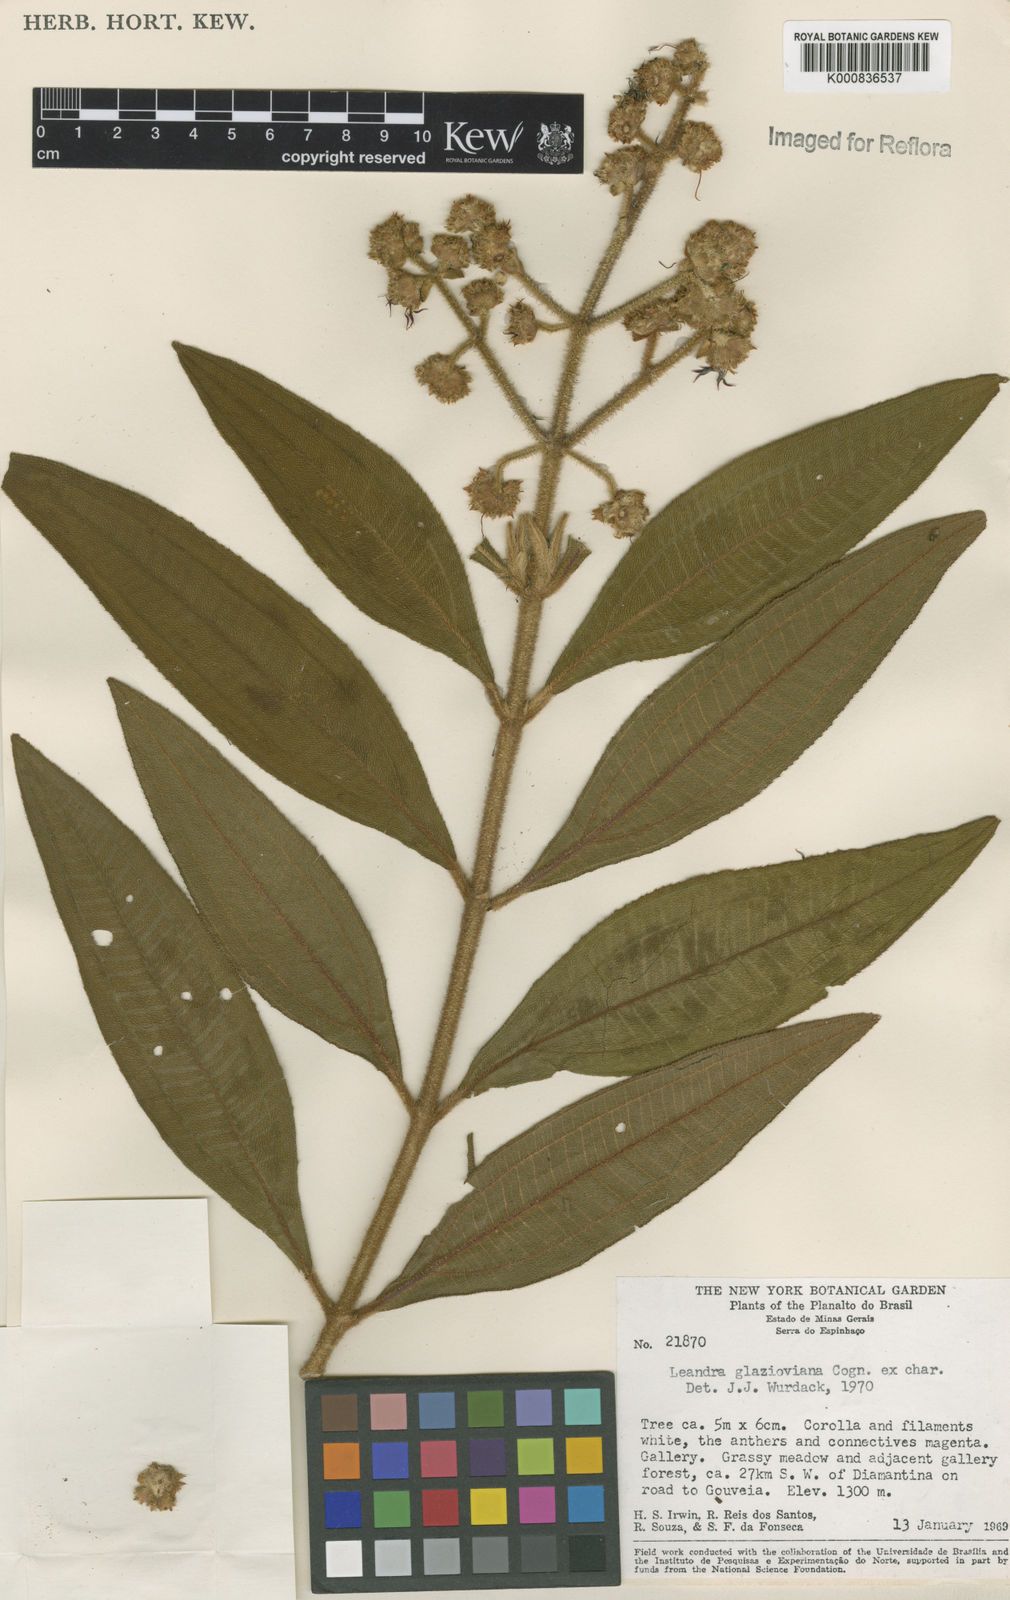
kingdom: Plantae
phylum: Tracheophyta
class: Magnoliopsida
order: Myrtales
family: Melastomataceae
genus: Miconia
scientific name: Miconia melastomoides
